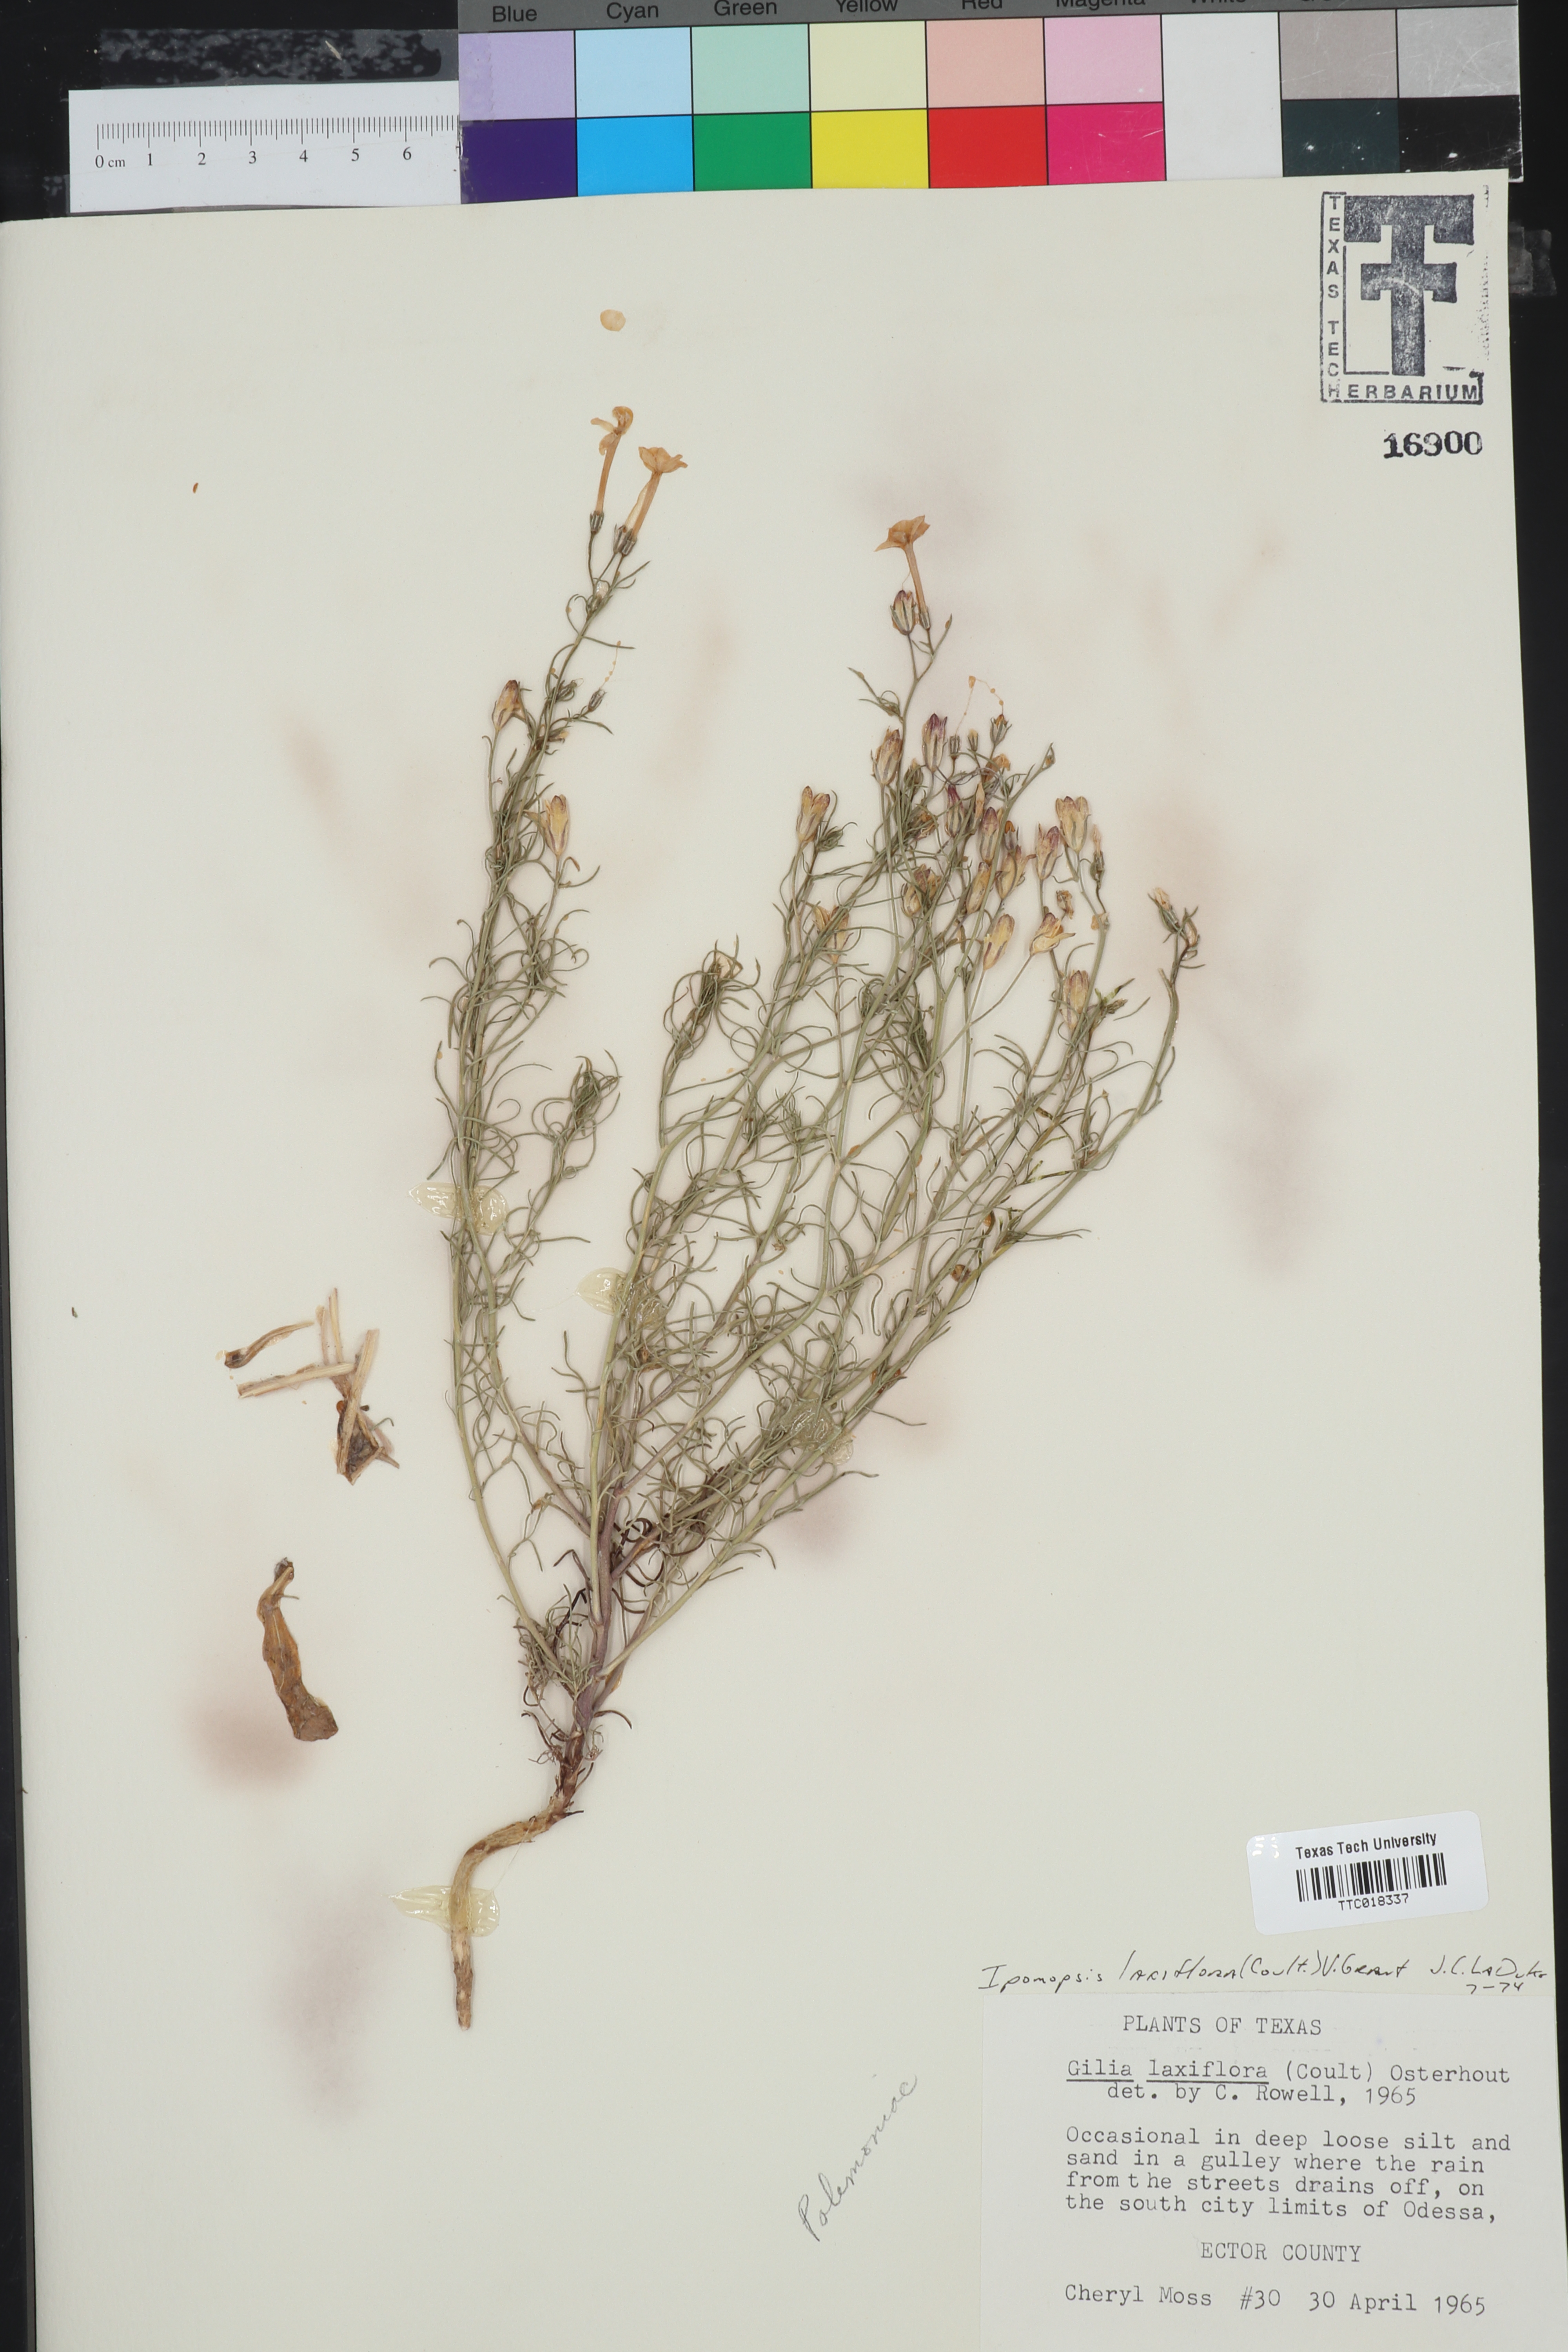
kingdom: Plantae
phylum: Tracheophyta
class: Magnoliopsida
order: Ericales
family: Polemoniaceae
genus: Ipomopsis
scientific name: Ipomopsis laxiflora
